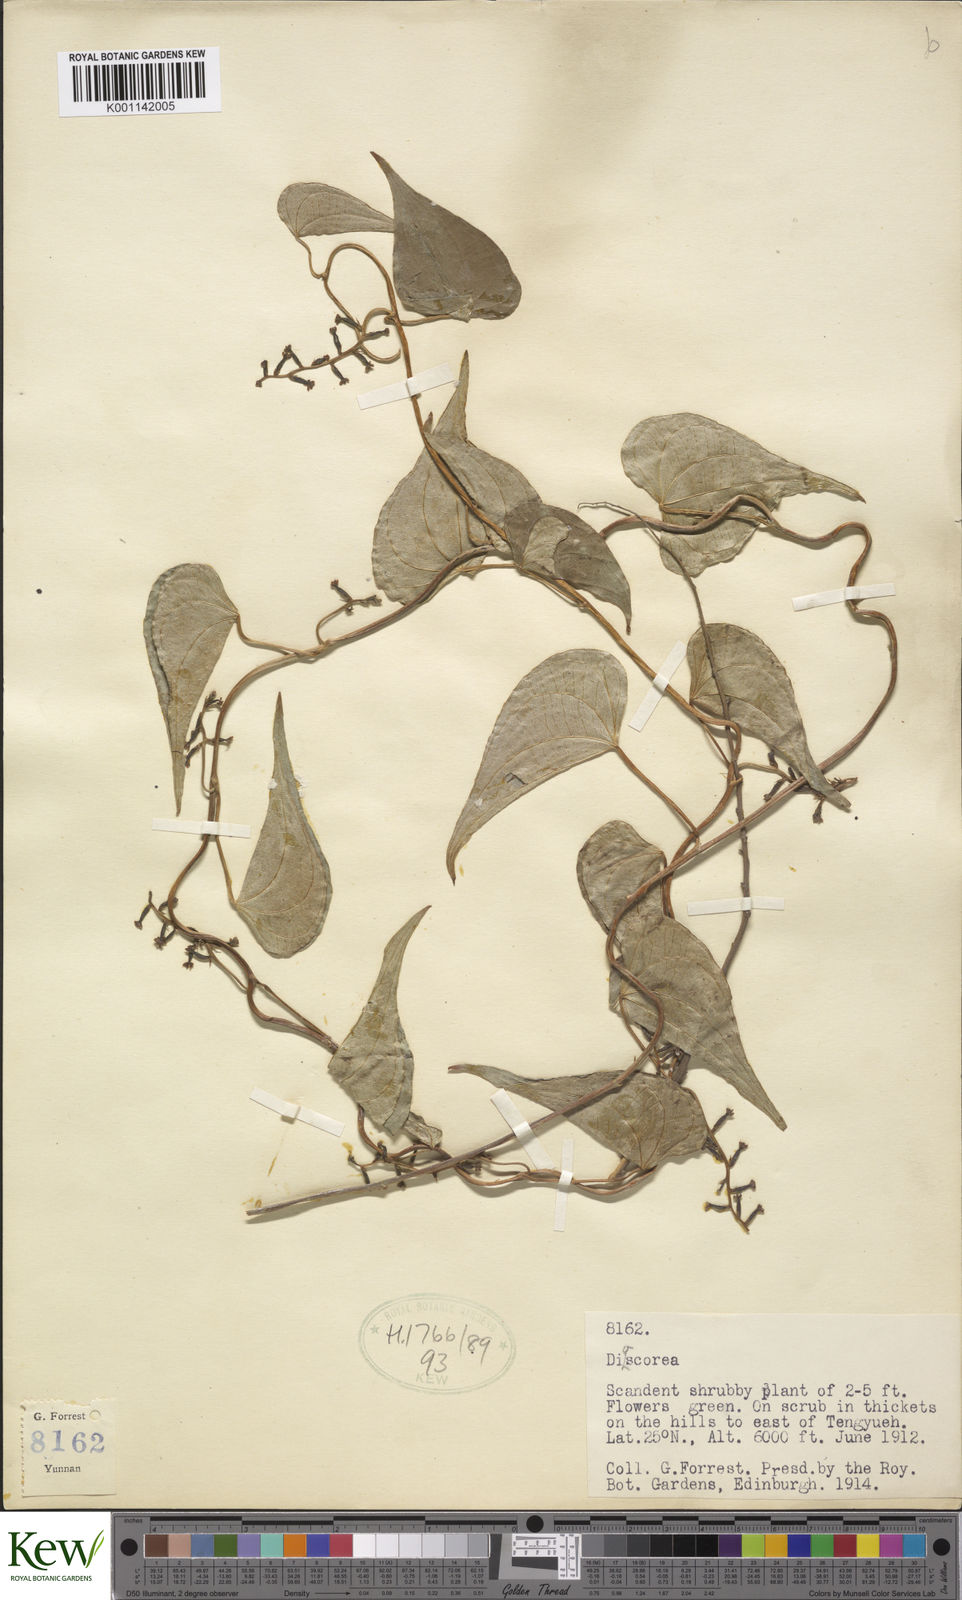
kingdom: Plantae
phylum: Tracheophyta
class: Liliopsida
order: Dioscoreales
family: Dioscoreaceae
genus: Dioscorea
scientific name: Dioscorea
